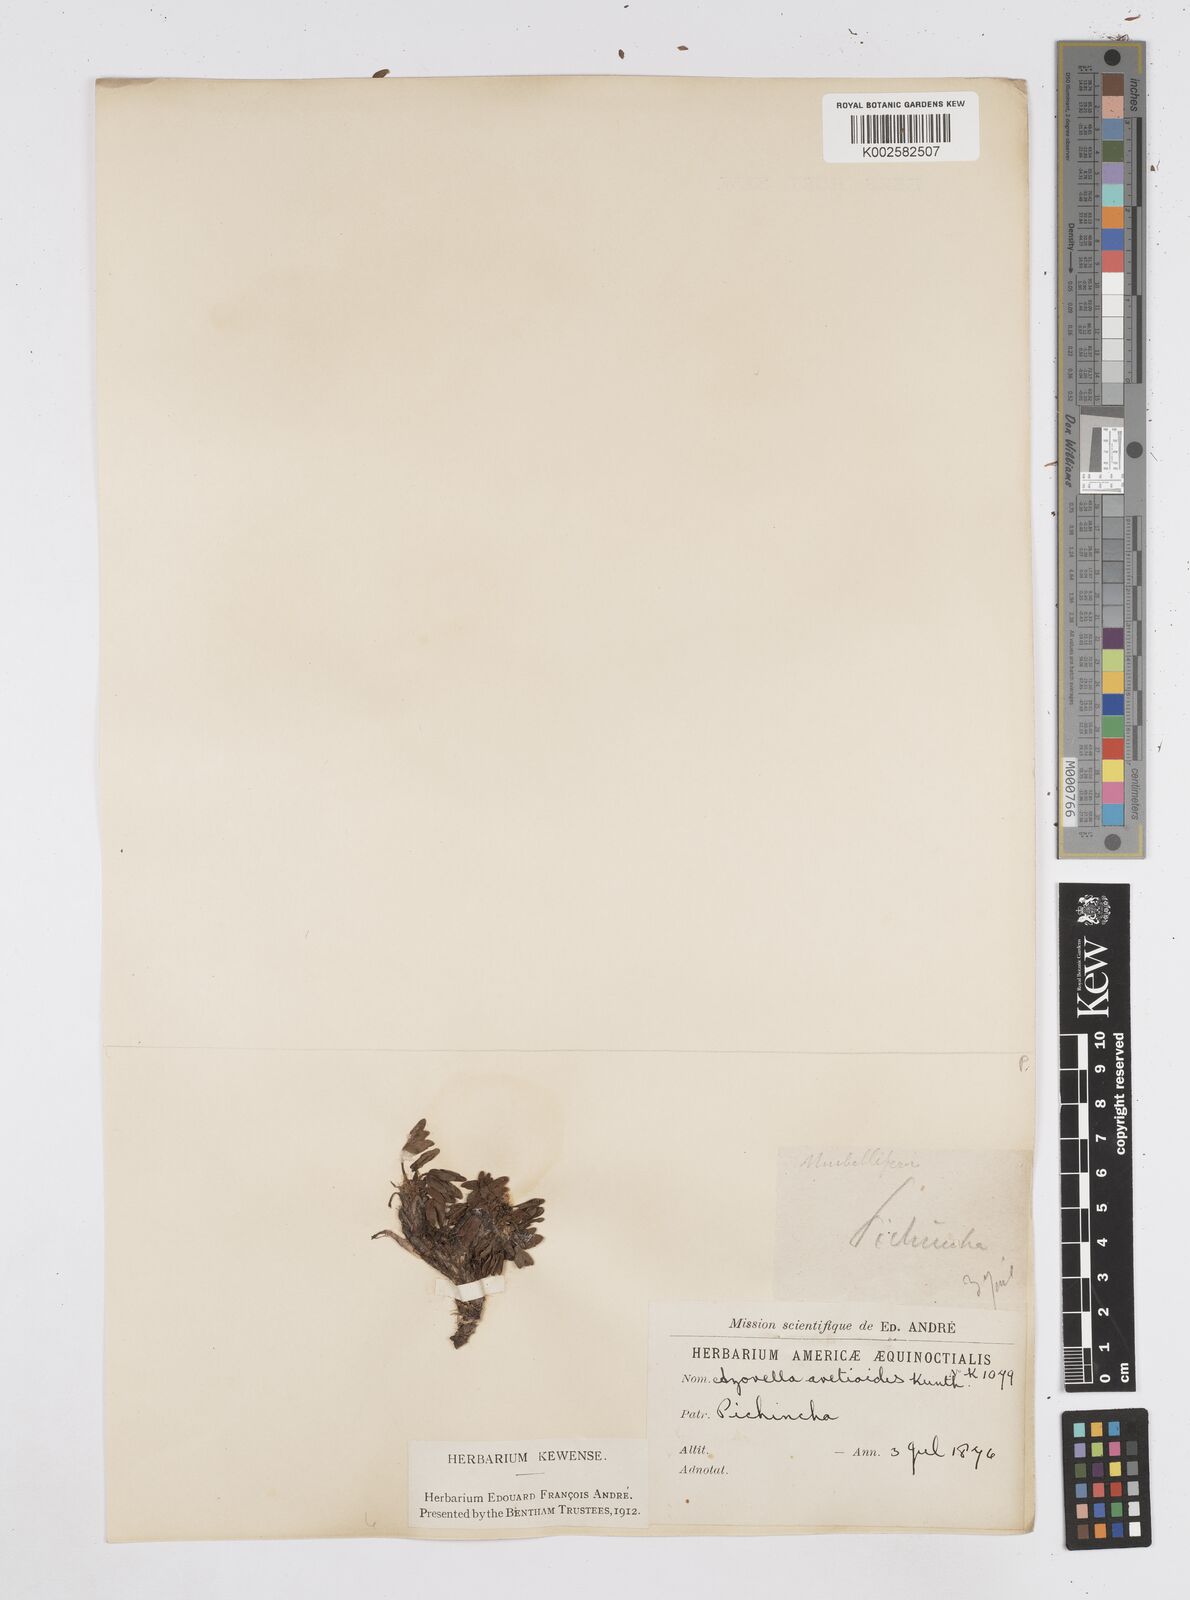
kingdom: Plantae
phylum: Tracheophyta
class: Magnoliopsida
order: Apiales
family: Apiaceae
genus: Azorella
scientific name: Azorella aretioides
